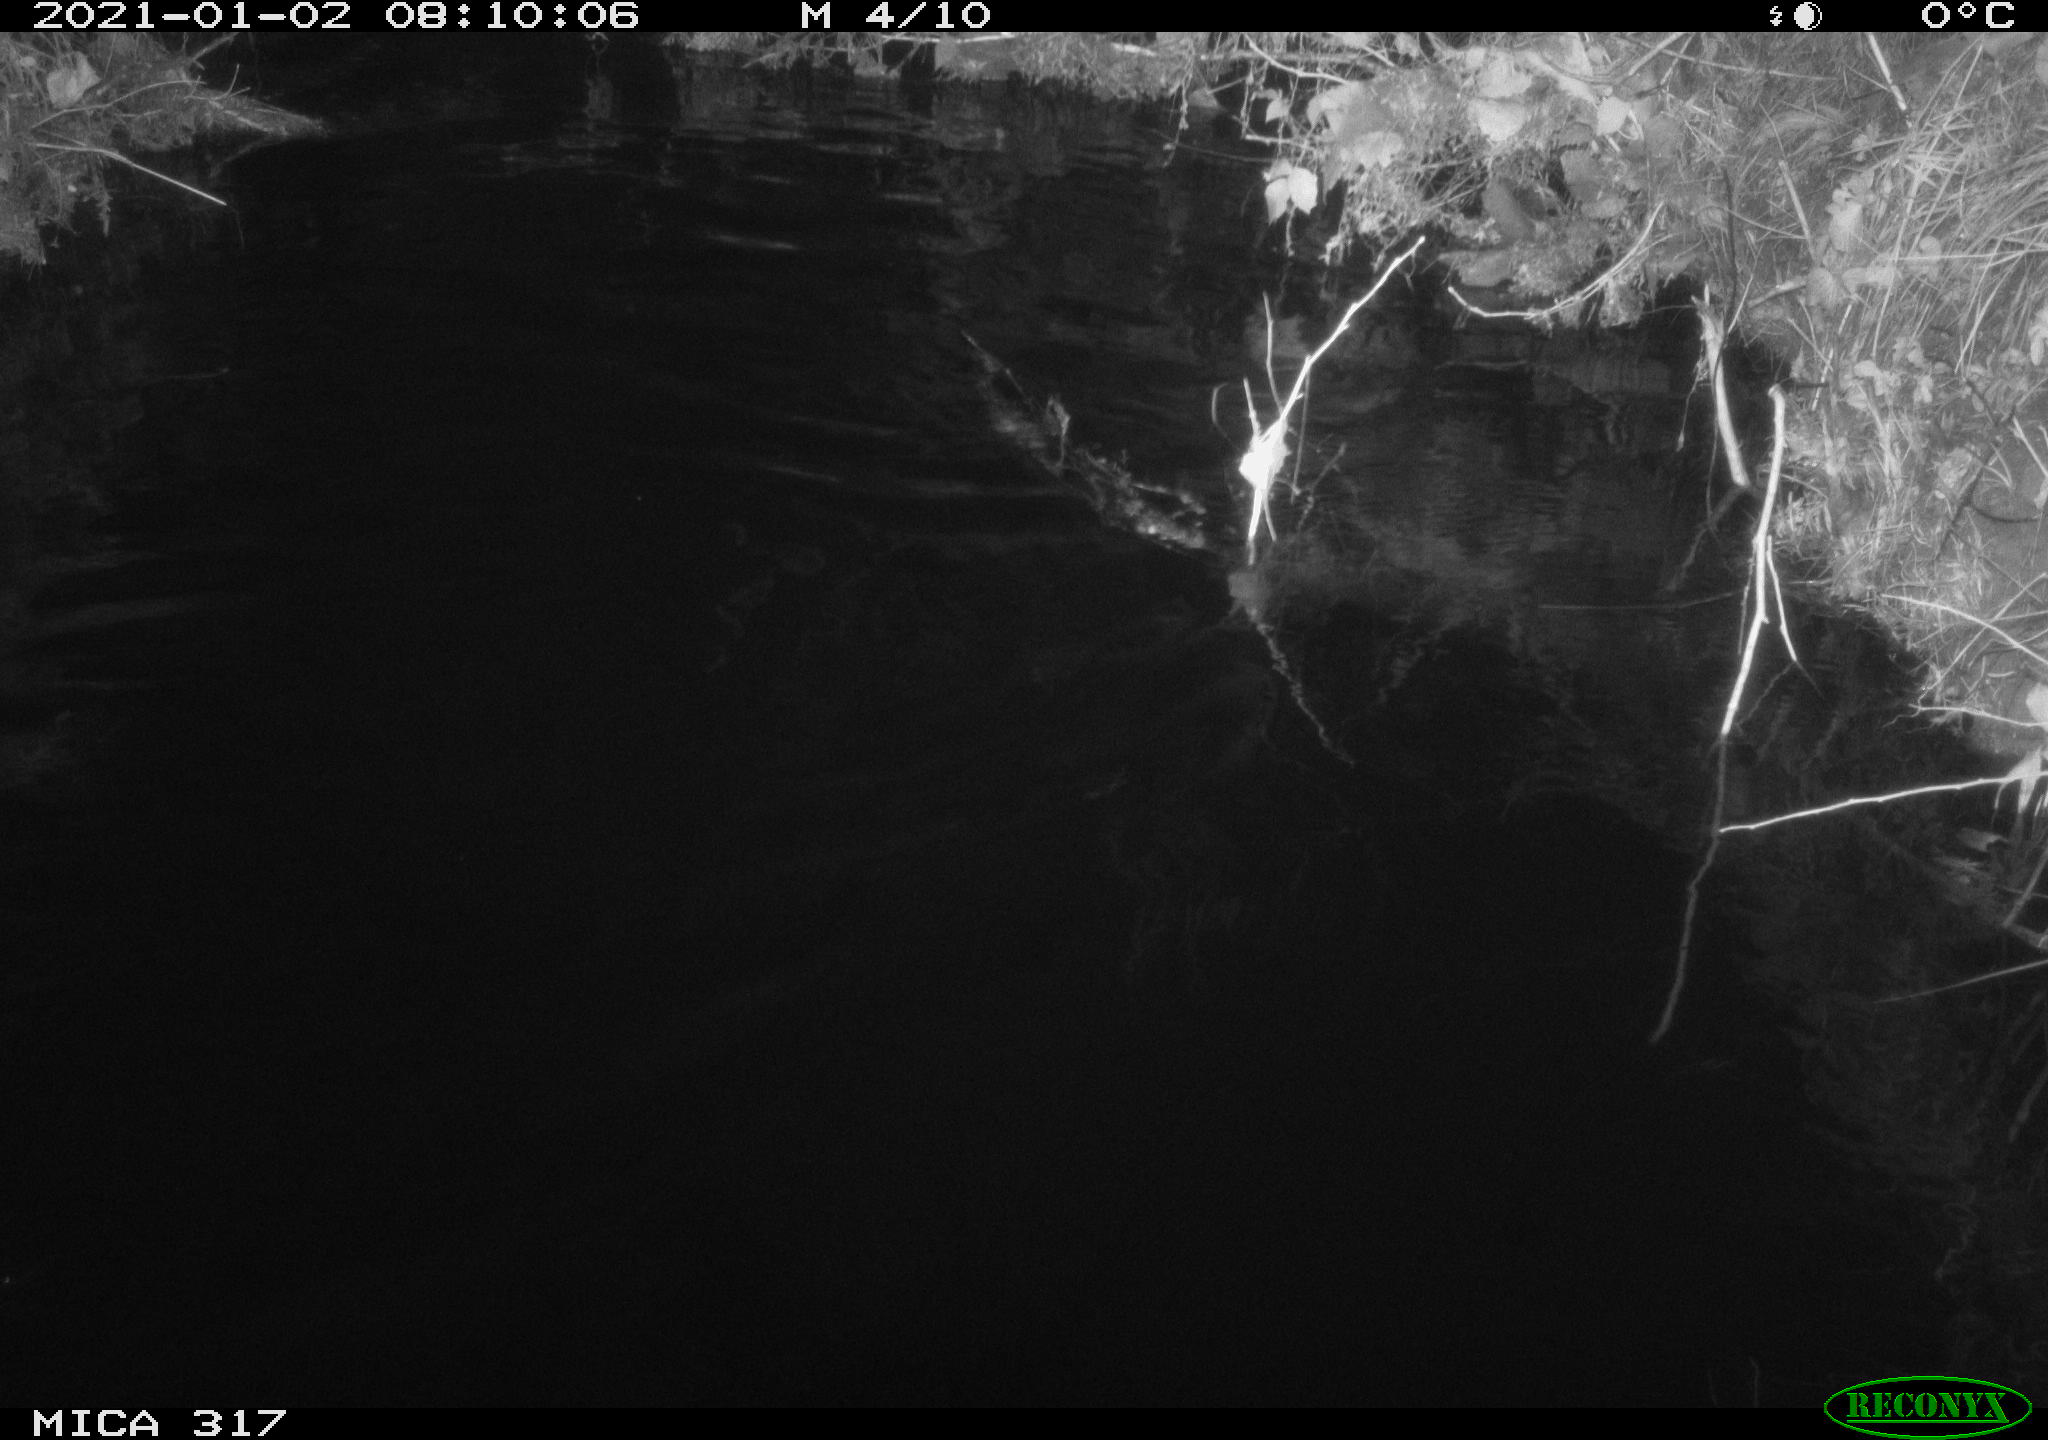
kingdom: Animalia
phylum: Chordata
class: Aves
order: Gruiformes
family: Rallidae
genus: Fulica
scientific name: Fulica atra
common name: Eurasian coot
